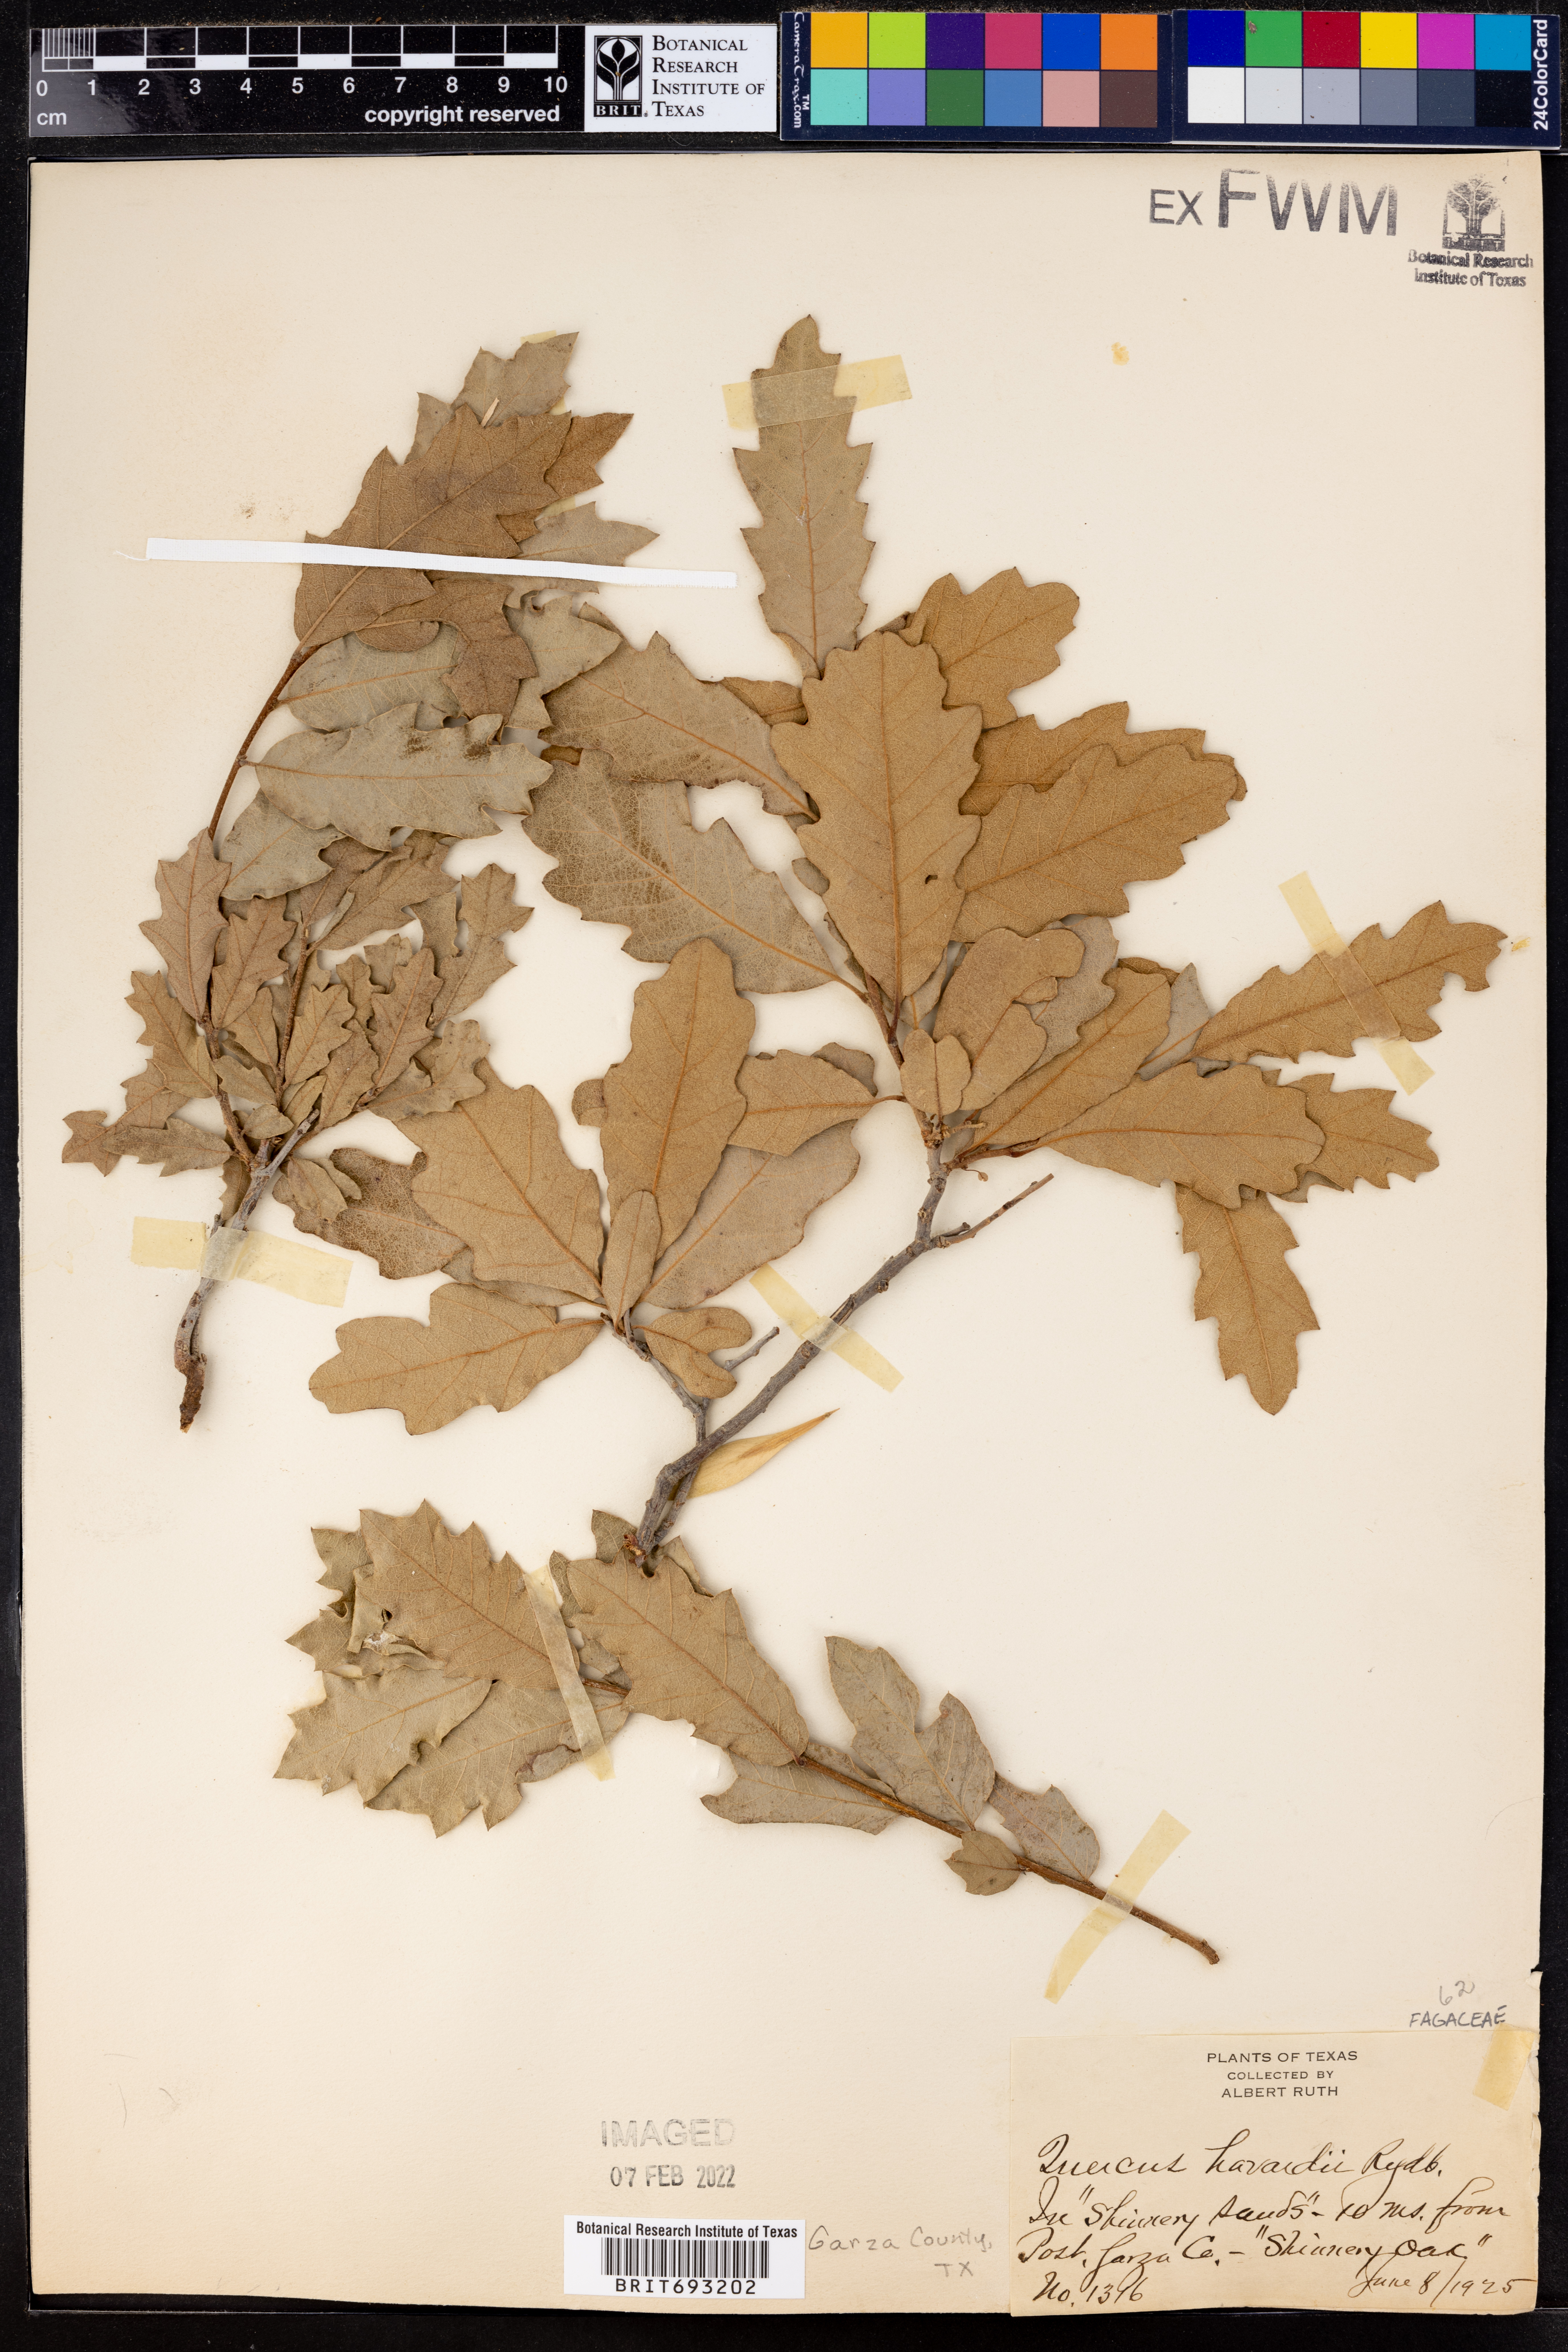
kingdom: Plantae
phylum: Tracheophyta
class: Magnoliopsida
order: Fagales
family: Fagaceae
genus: Quercus
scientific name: Quercus havardii
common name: Shinnery oak
